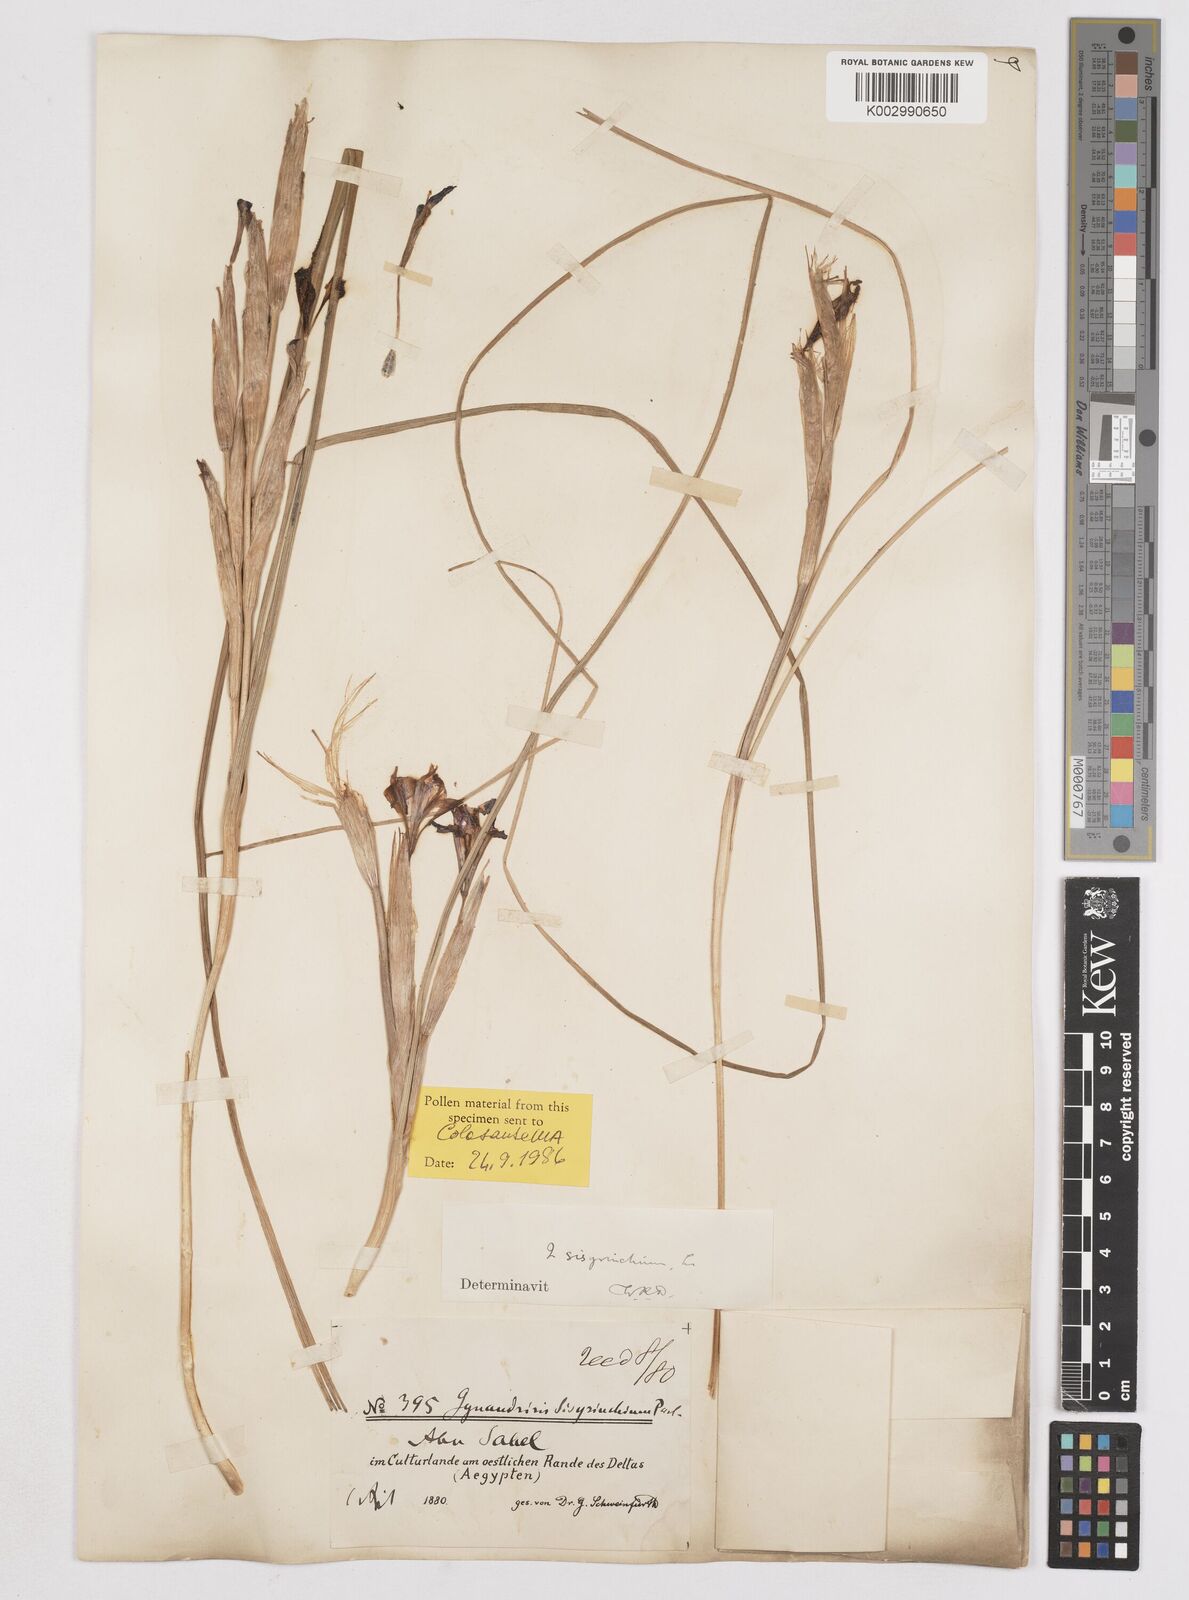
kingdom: Plantae
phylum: Tracheophyta
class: Liliopsida
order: Asparagales
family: Iridaceae
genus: Moraea
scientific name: Moraea sisyrinchium
